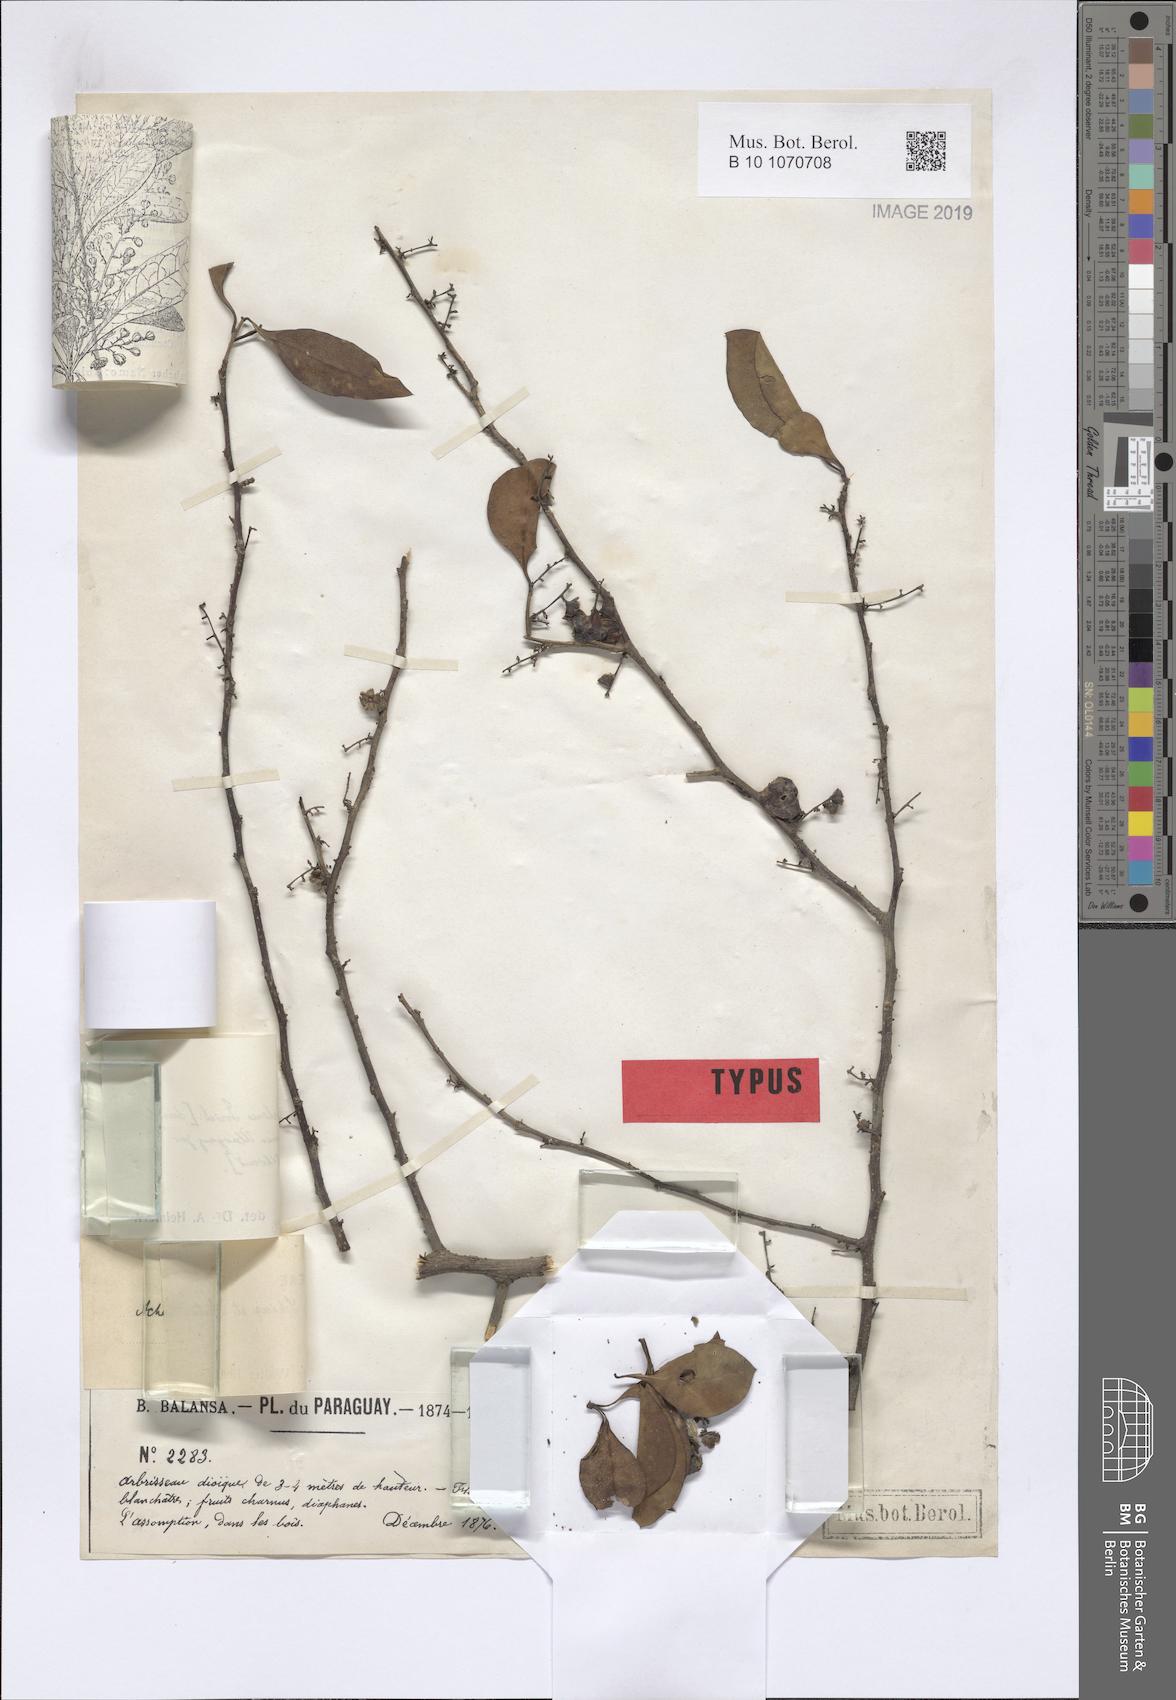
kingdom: Plantae
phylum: Tracheophyta
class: Magnoliopsida
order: Caryophyllales
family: Achatocarpaceae
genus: Achatocarpus
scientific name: Achatocarpus praecox
